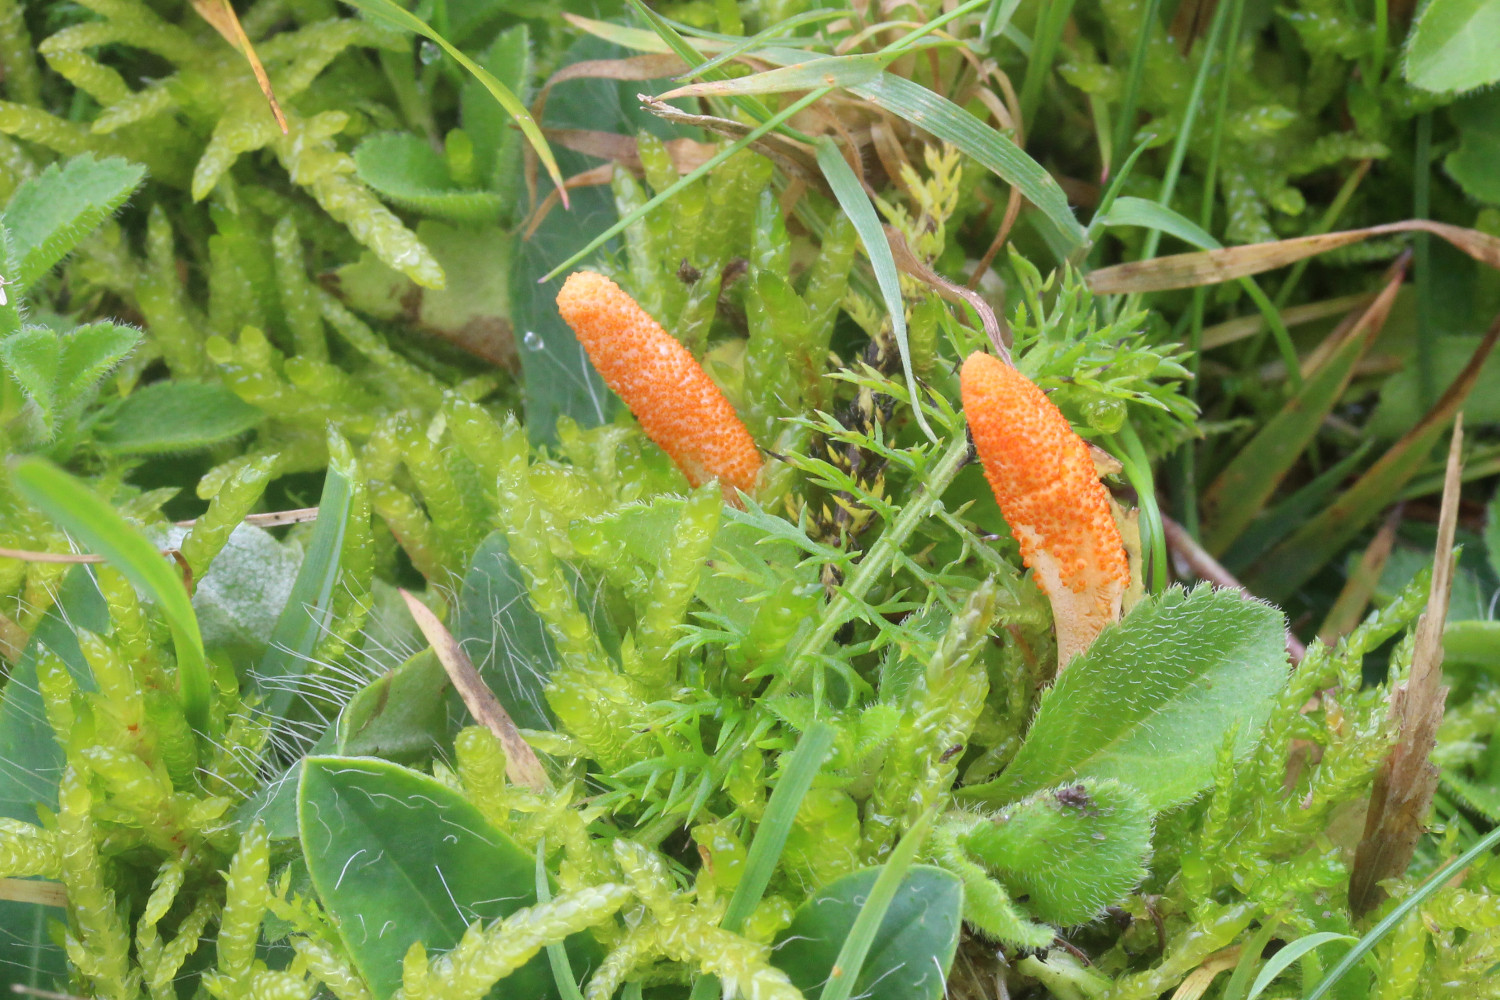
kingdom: Fungi
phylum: Ascomycota
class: Sordariomycetes
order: Hypocreales
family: Cordycipitaceae
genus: Cordyceps
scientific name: Cordyceps militaris
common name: puppe-snyltekølle
